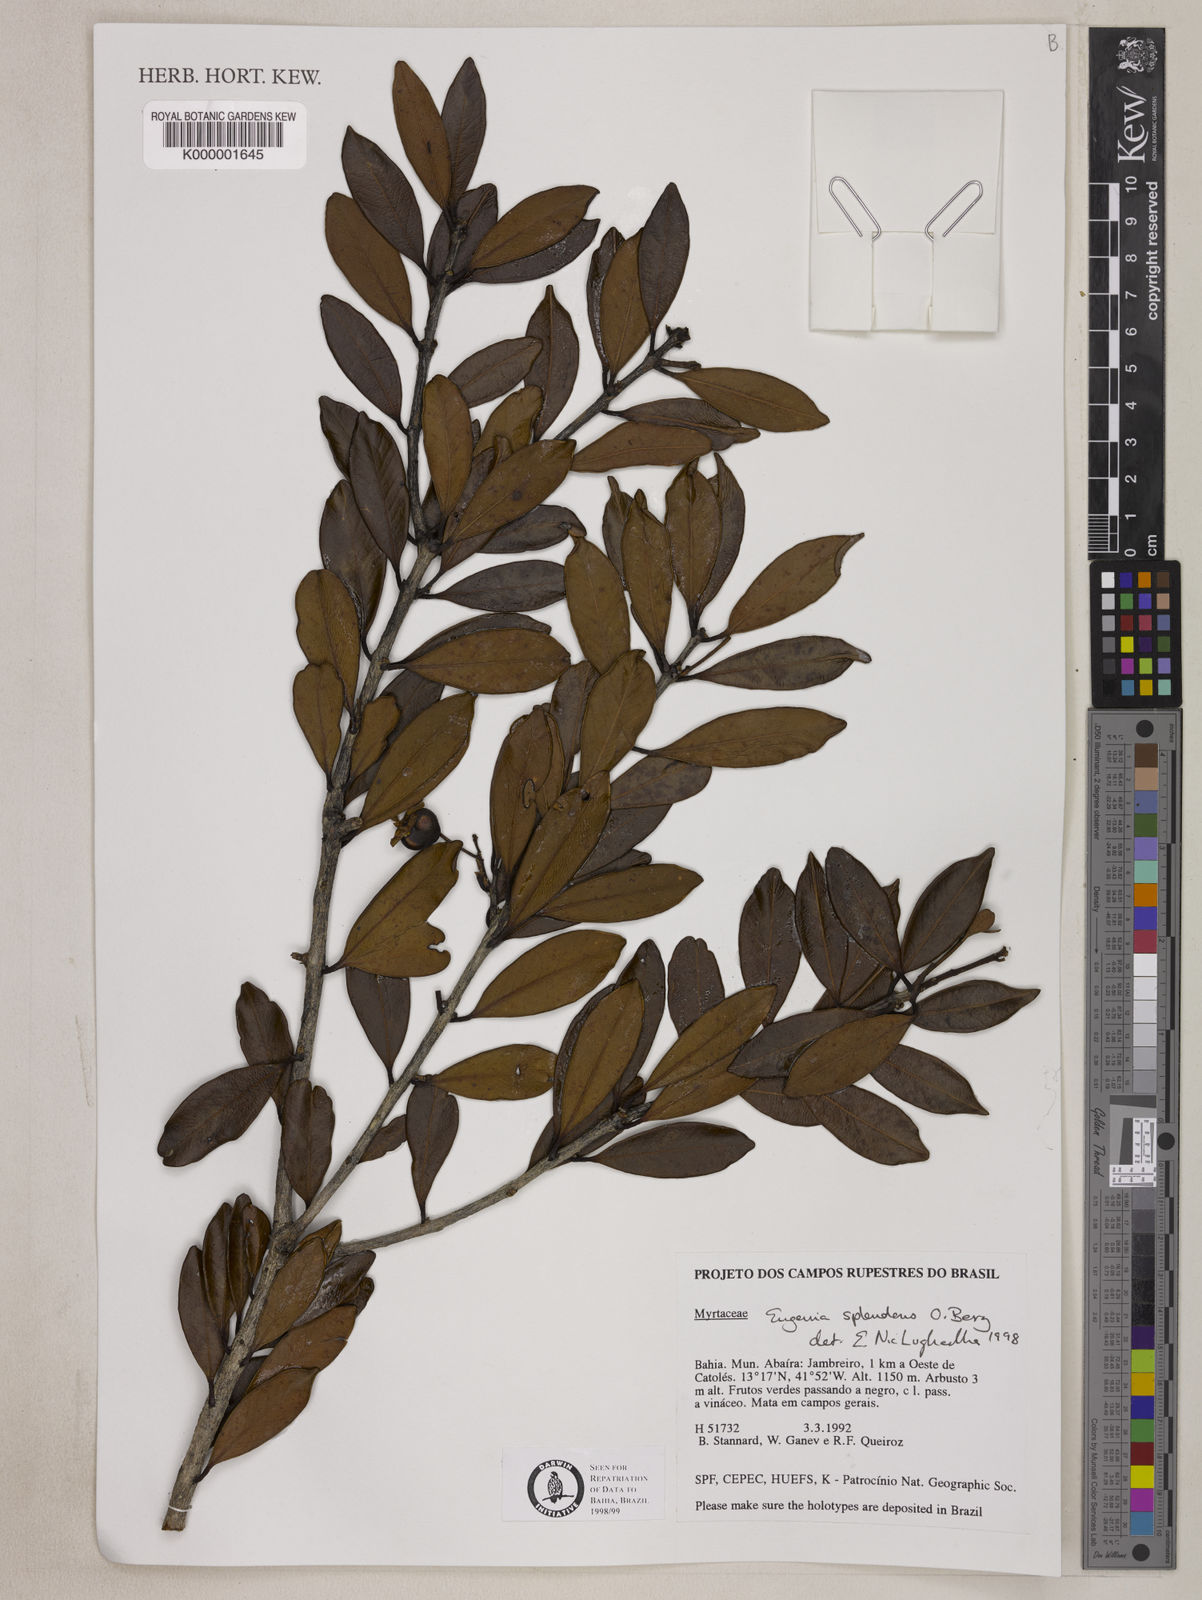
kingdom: Plantae
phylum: Tracheophyta
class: Magnoliopsida
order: Myrtales
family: Myrtaceae
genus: Eugenia
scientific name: Eugenia splendens
